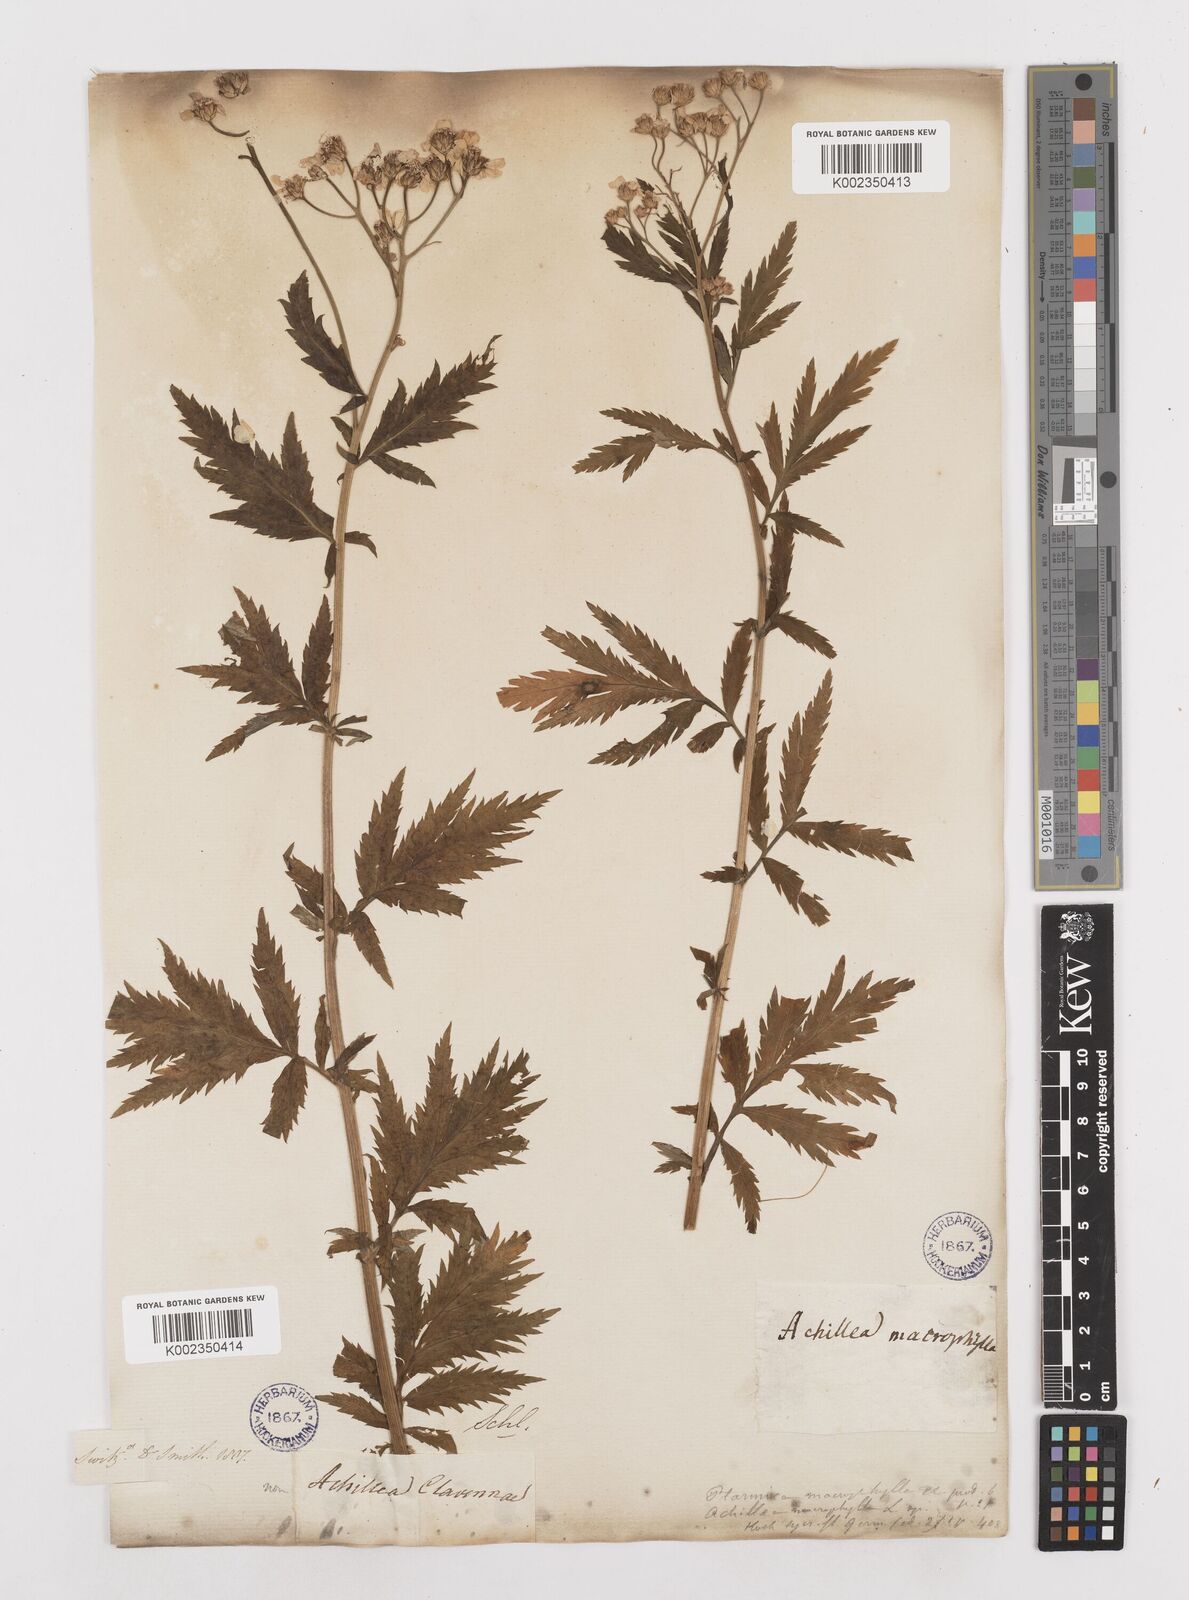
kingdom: Plantae
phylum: Tracheophyta
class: Magnoliopsida
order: Asterales
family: Asteraceae
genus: Achillea
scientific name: Achillea macrophylla
